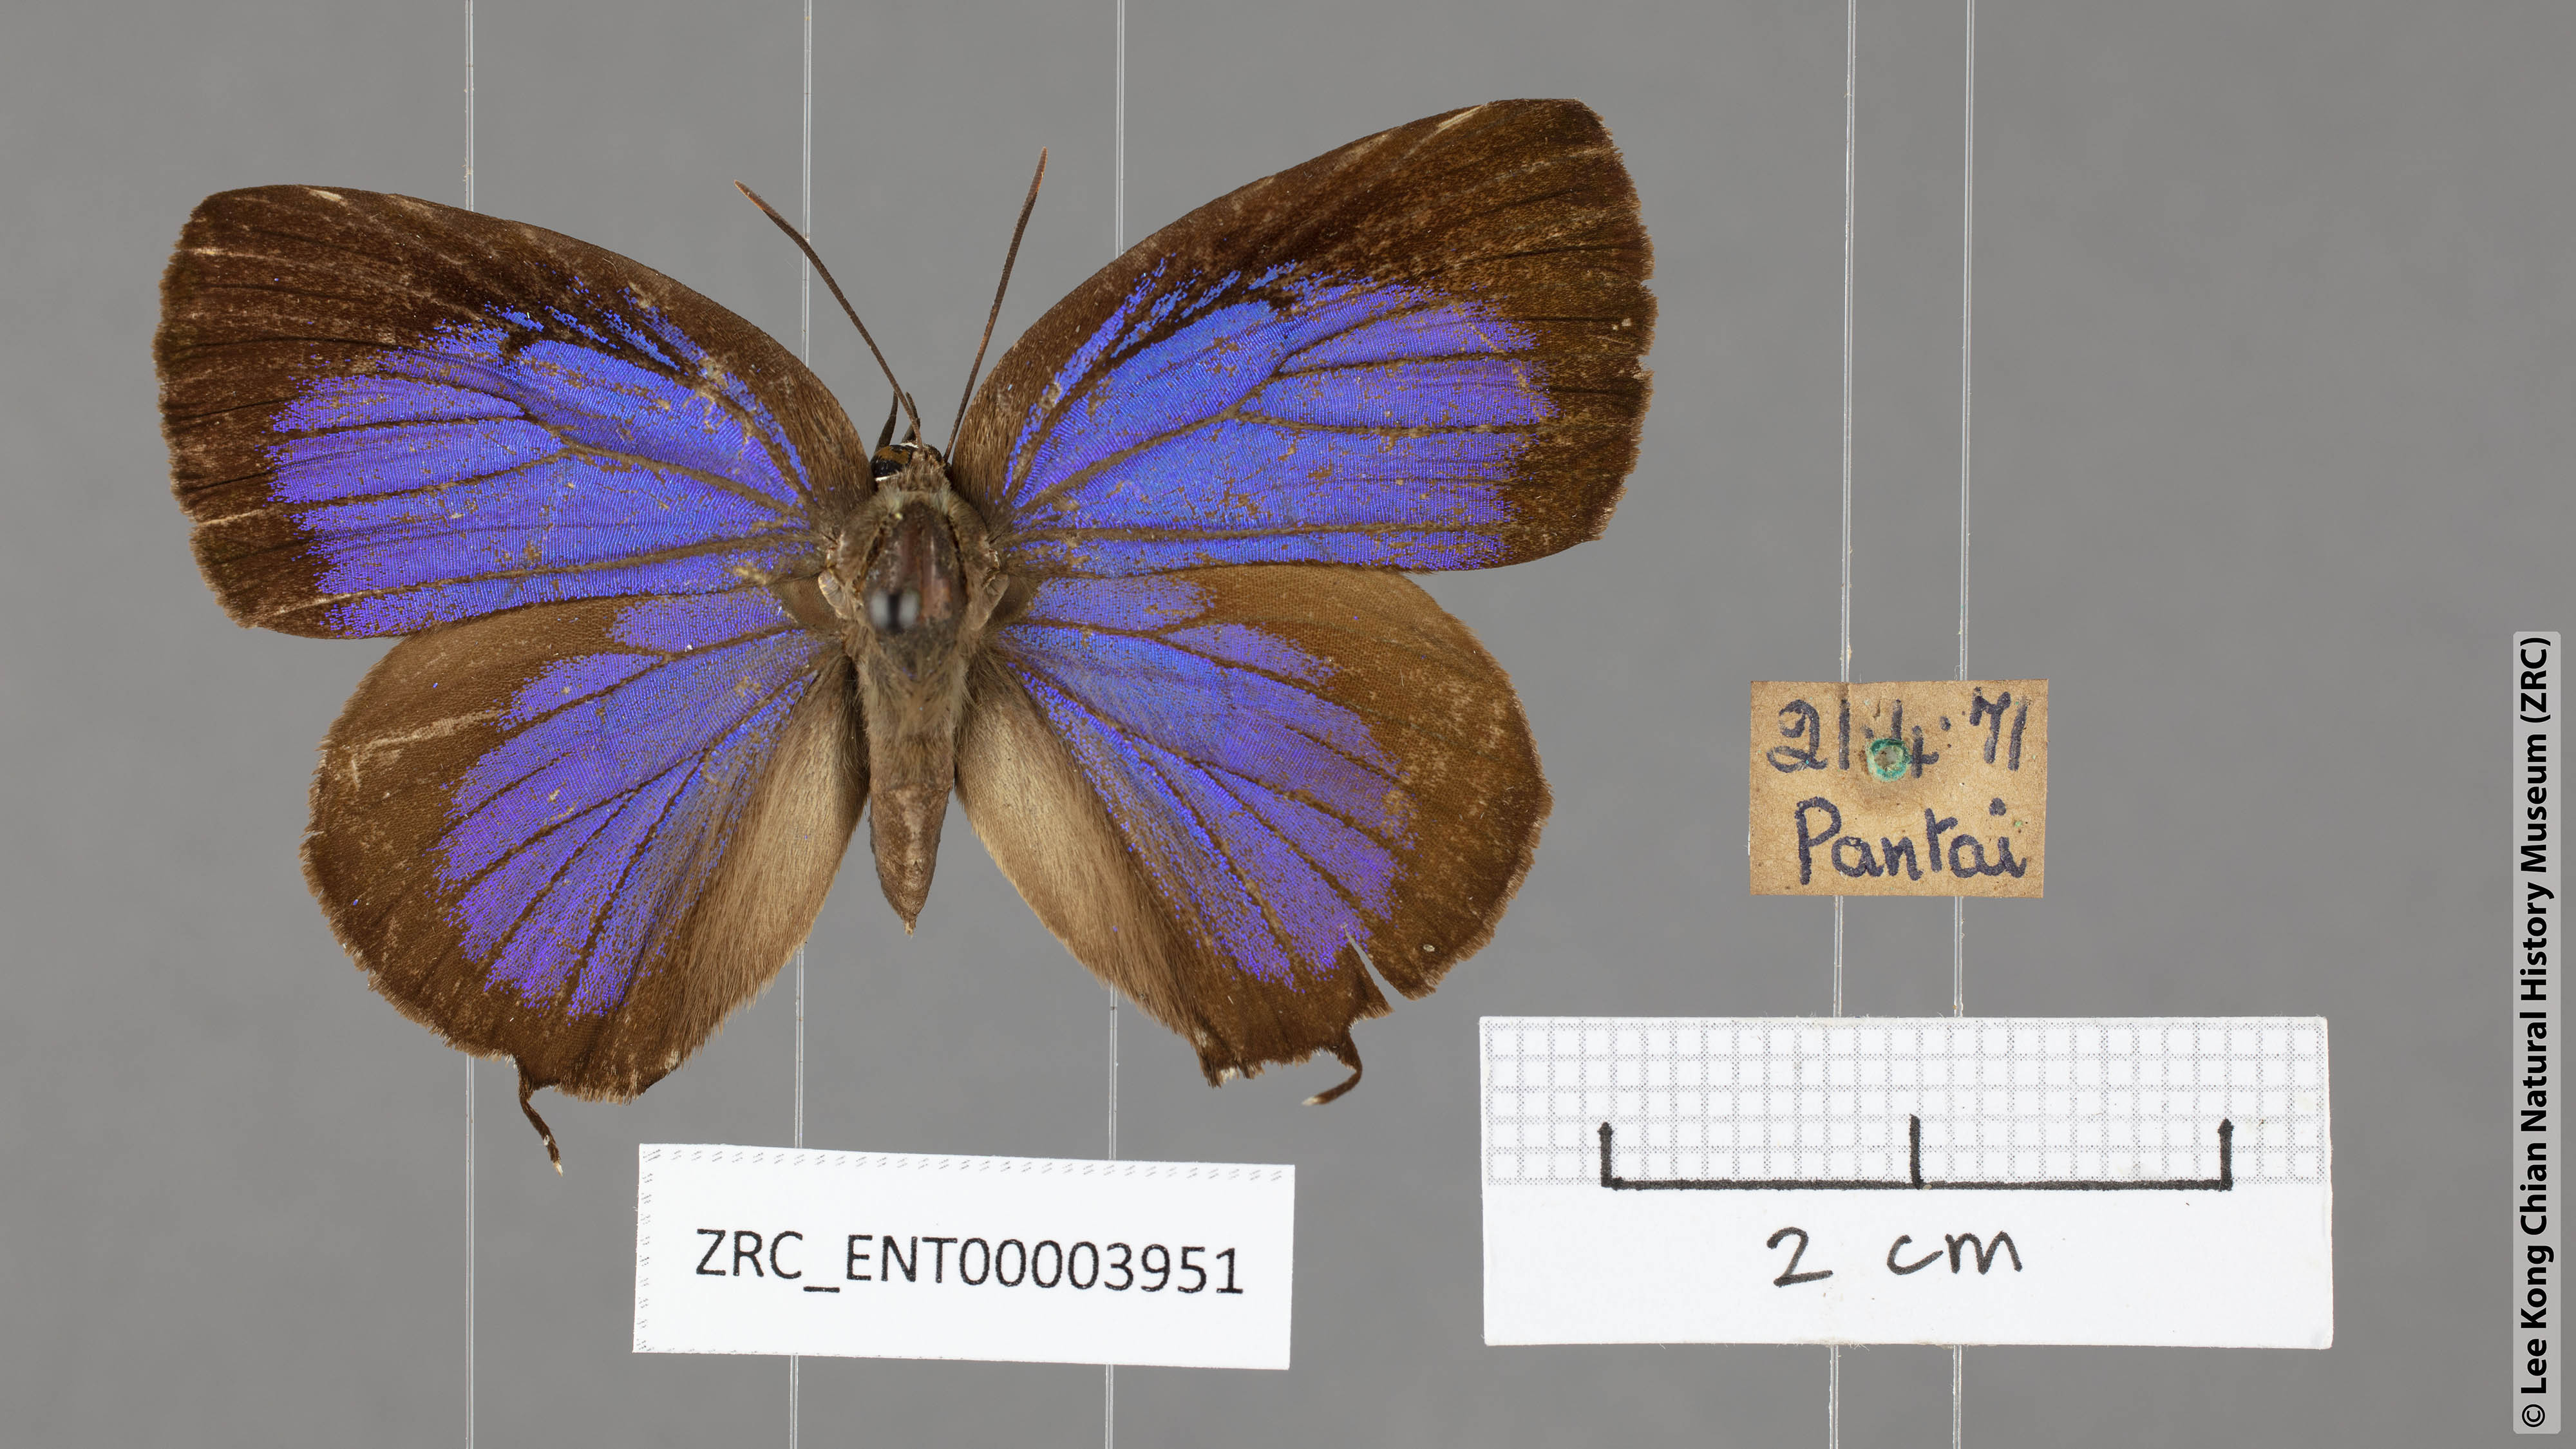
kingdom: Animalia
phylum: Arthropoda
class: Insecta
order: Lepidoptera
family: Lycaenidae
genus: Arhopala
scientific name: Arhopala horsfieldi
